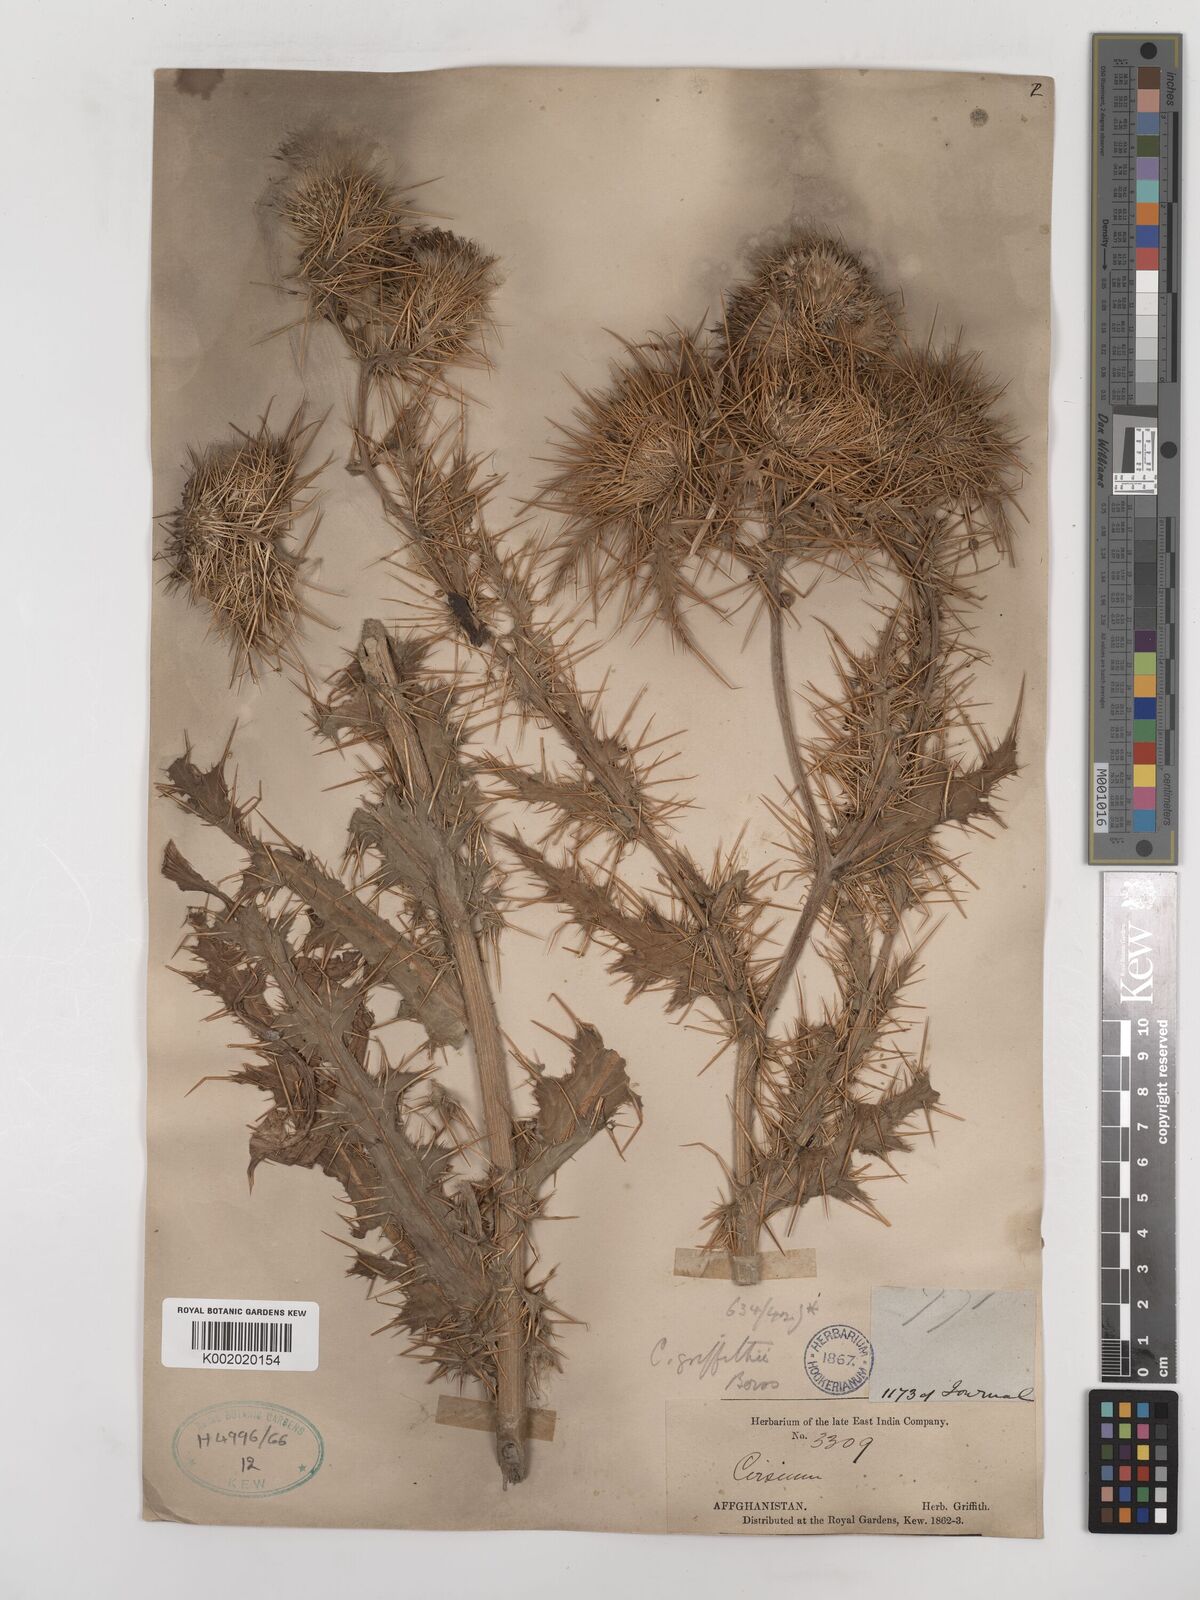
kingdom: Plantae
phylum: Tracheophyta
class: Magnoliopsida
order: Asterales
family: Asteraceae
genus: Lophiolepis
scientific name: Lophiolepis griffithii
